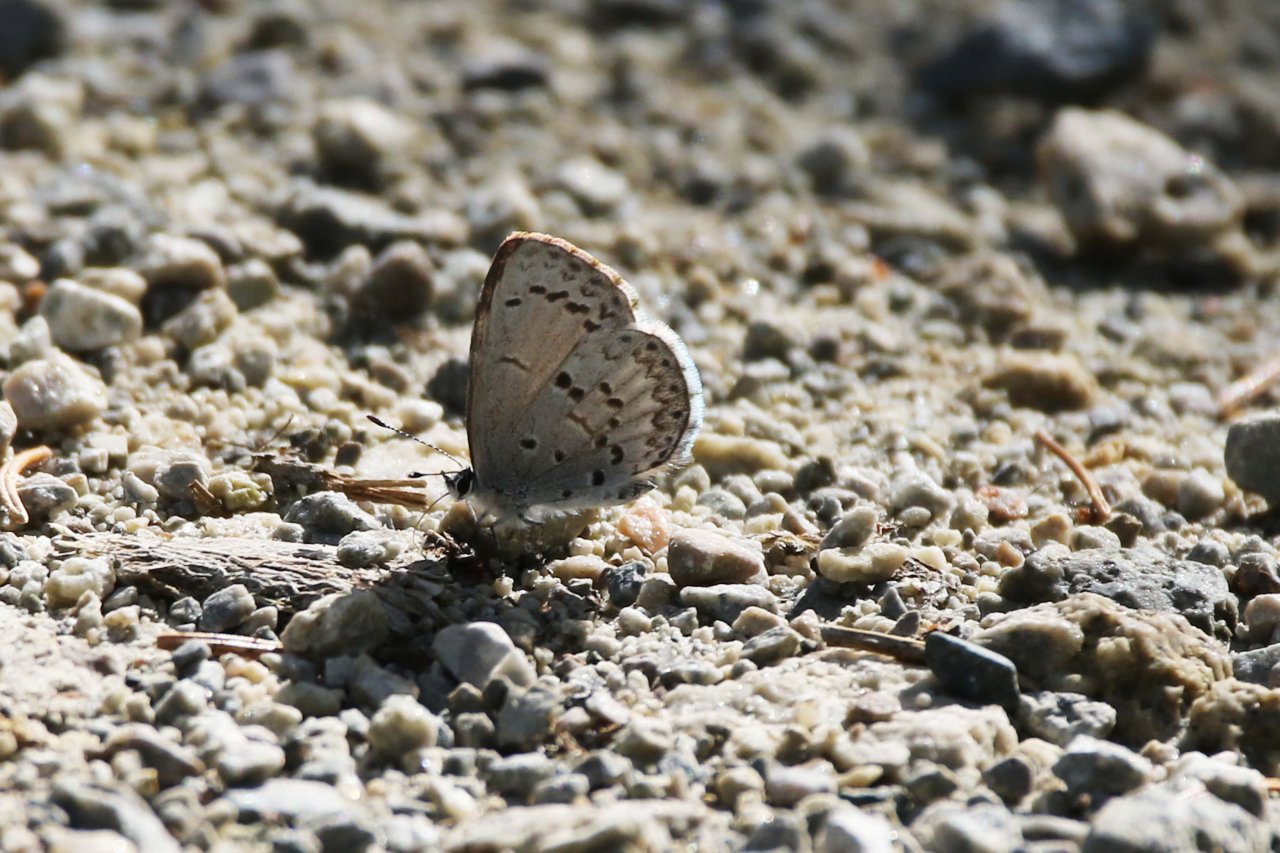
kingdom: Animalia
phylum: Arthropoda
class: Insecta
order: Lepidoptera
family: Lycaenidae
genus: Celastrina
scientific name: Celastrina lucia
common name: Northern Spring Azure
